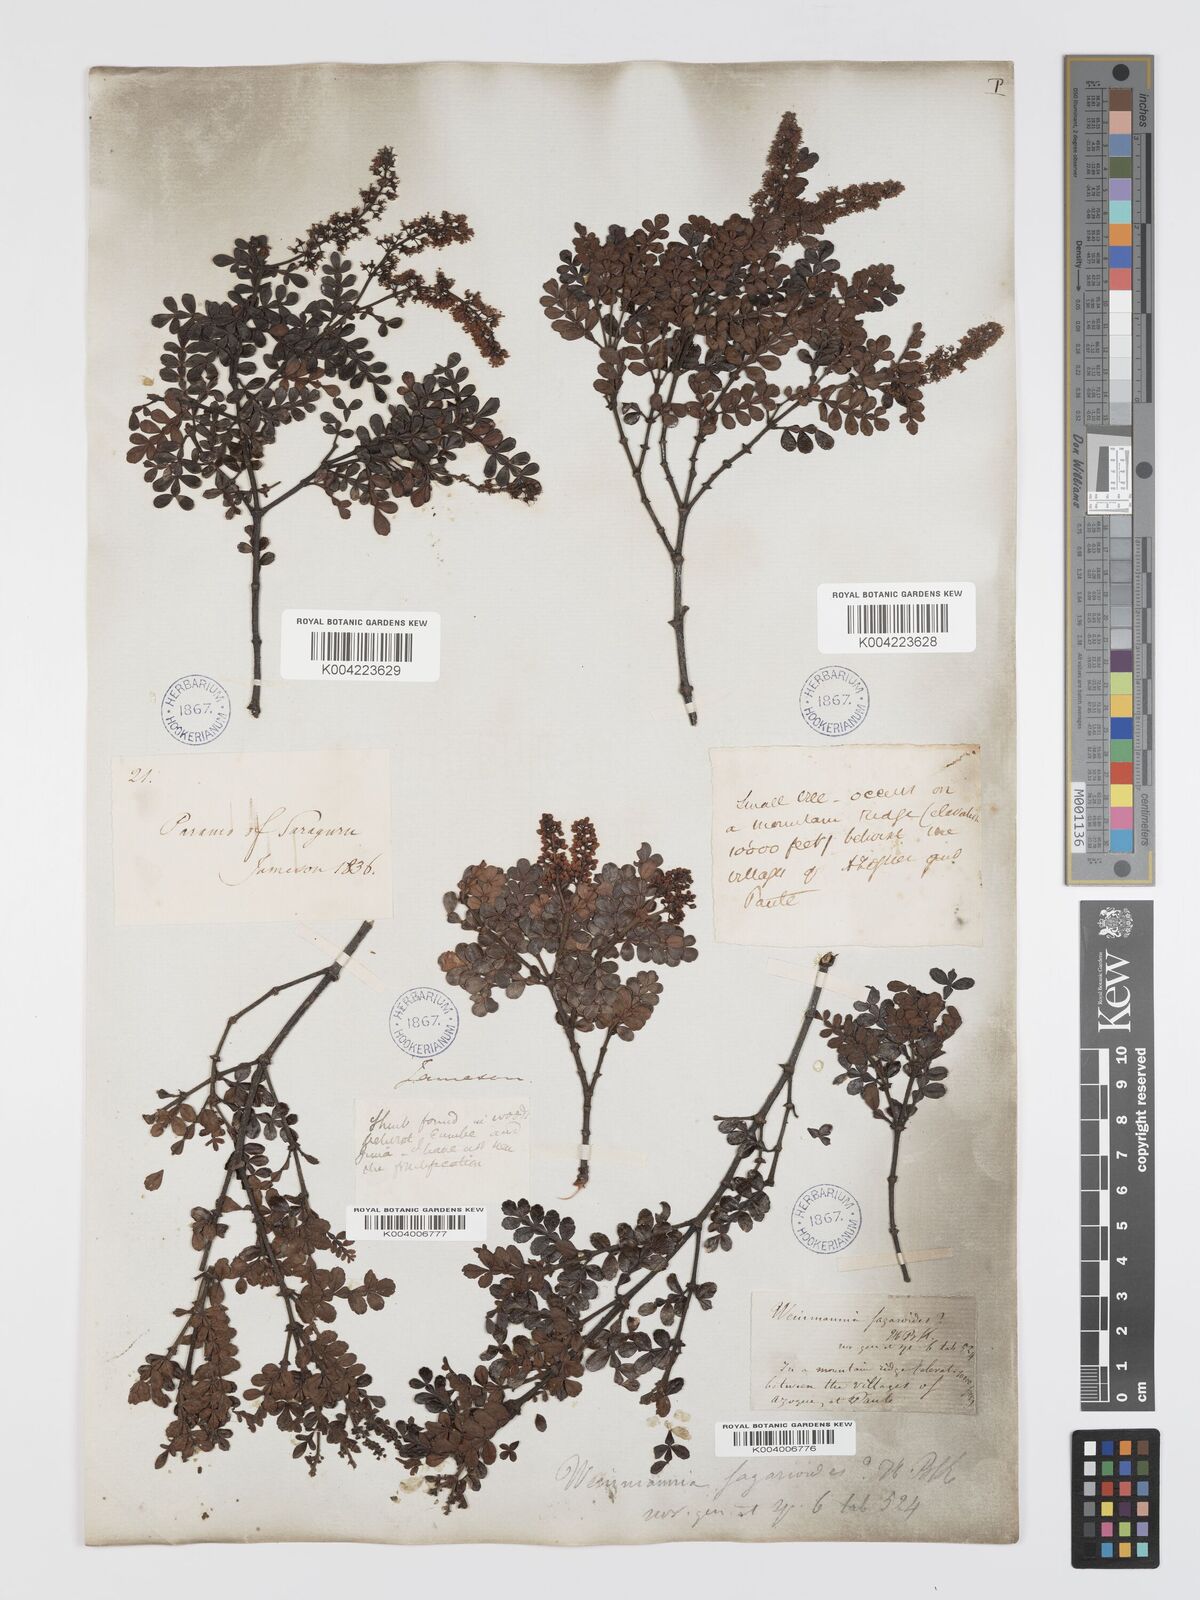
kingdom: Plantae
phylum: Tracheophyta
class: Magnoliopsida
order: Oxalidales
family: Cunoniaceae
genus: Weinmannia
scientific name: Weinmannia fagaroides
